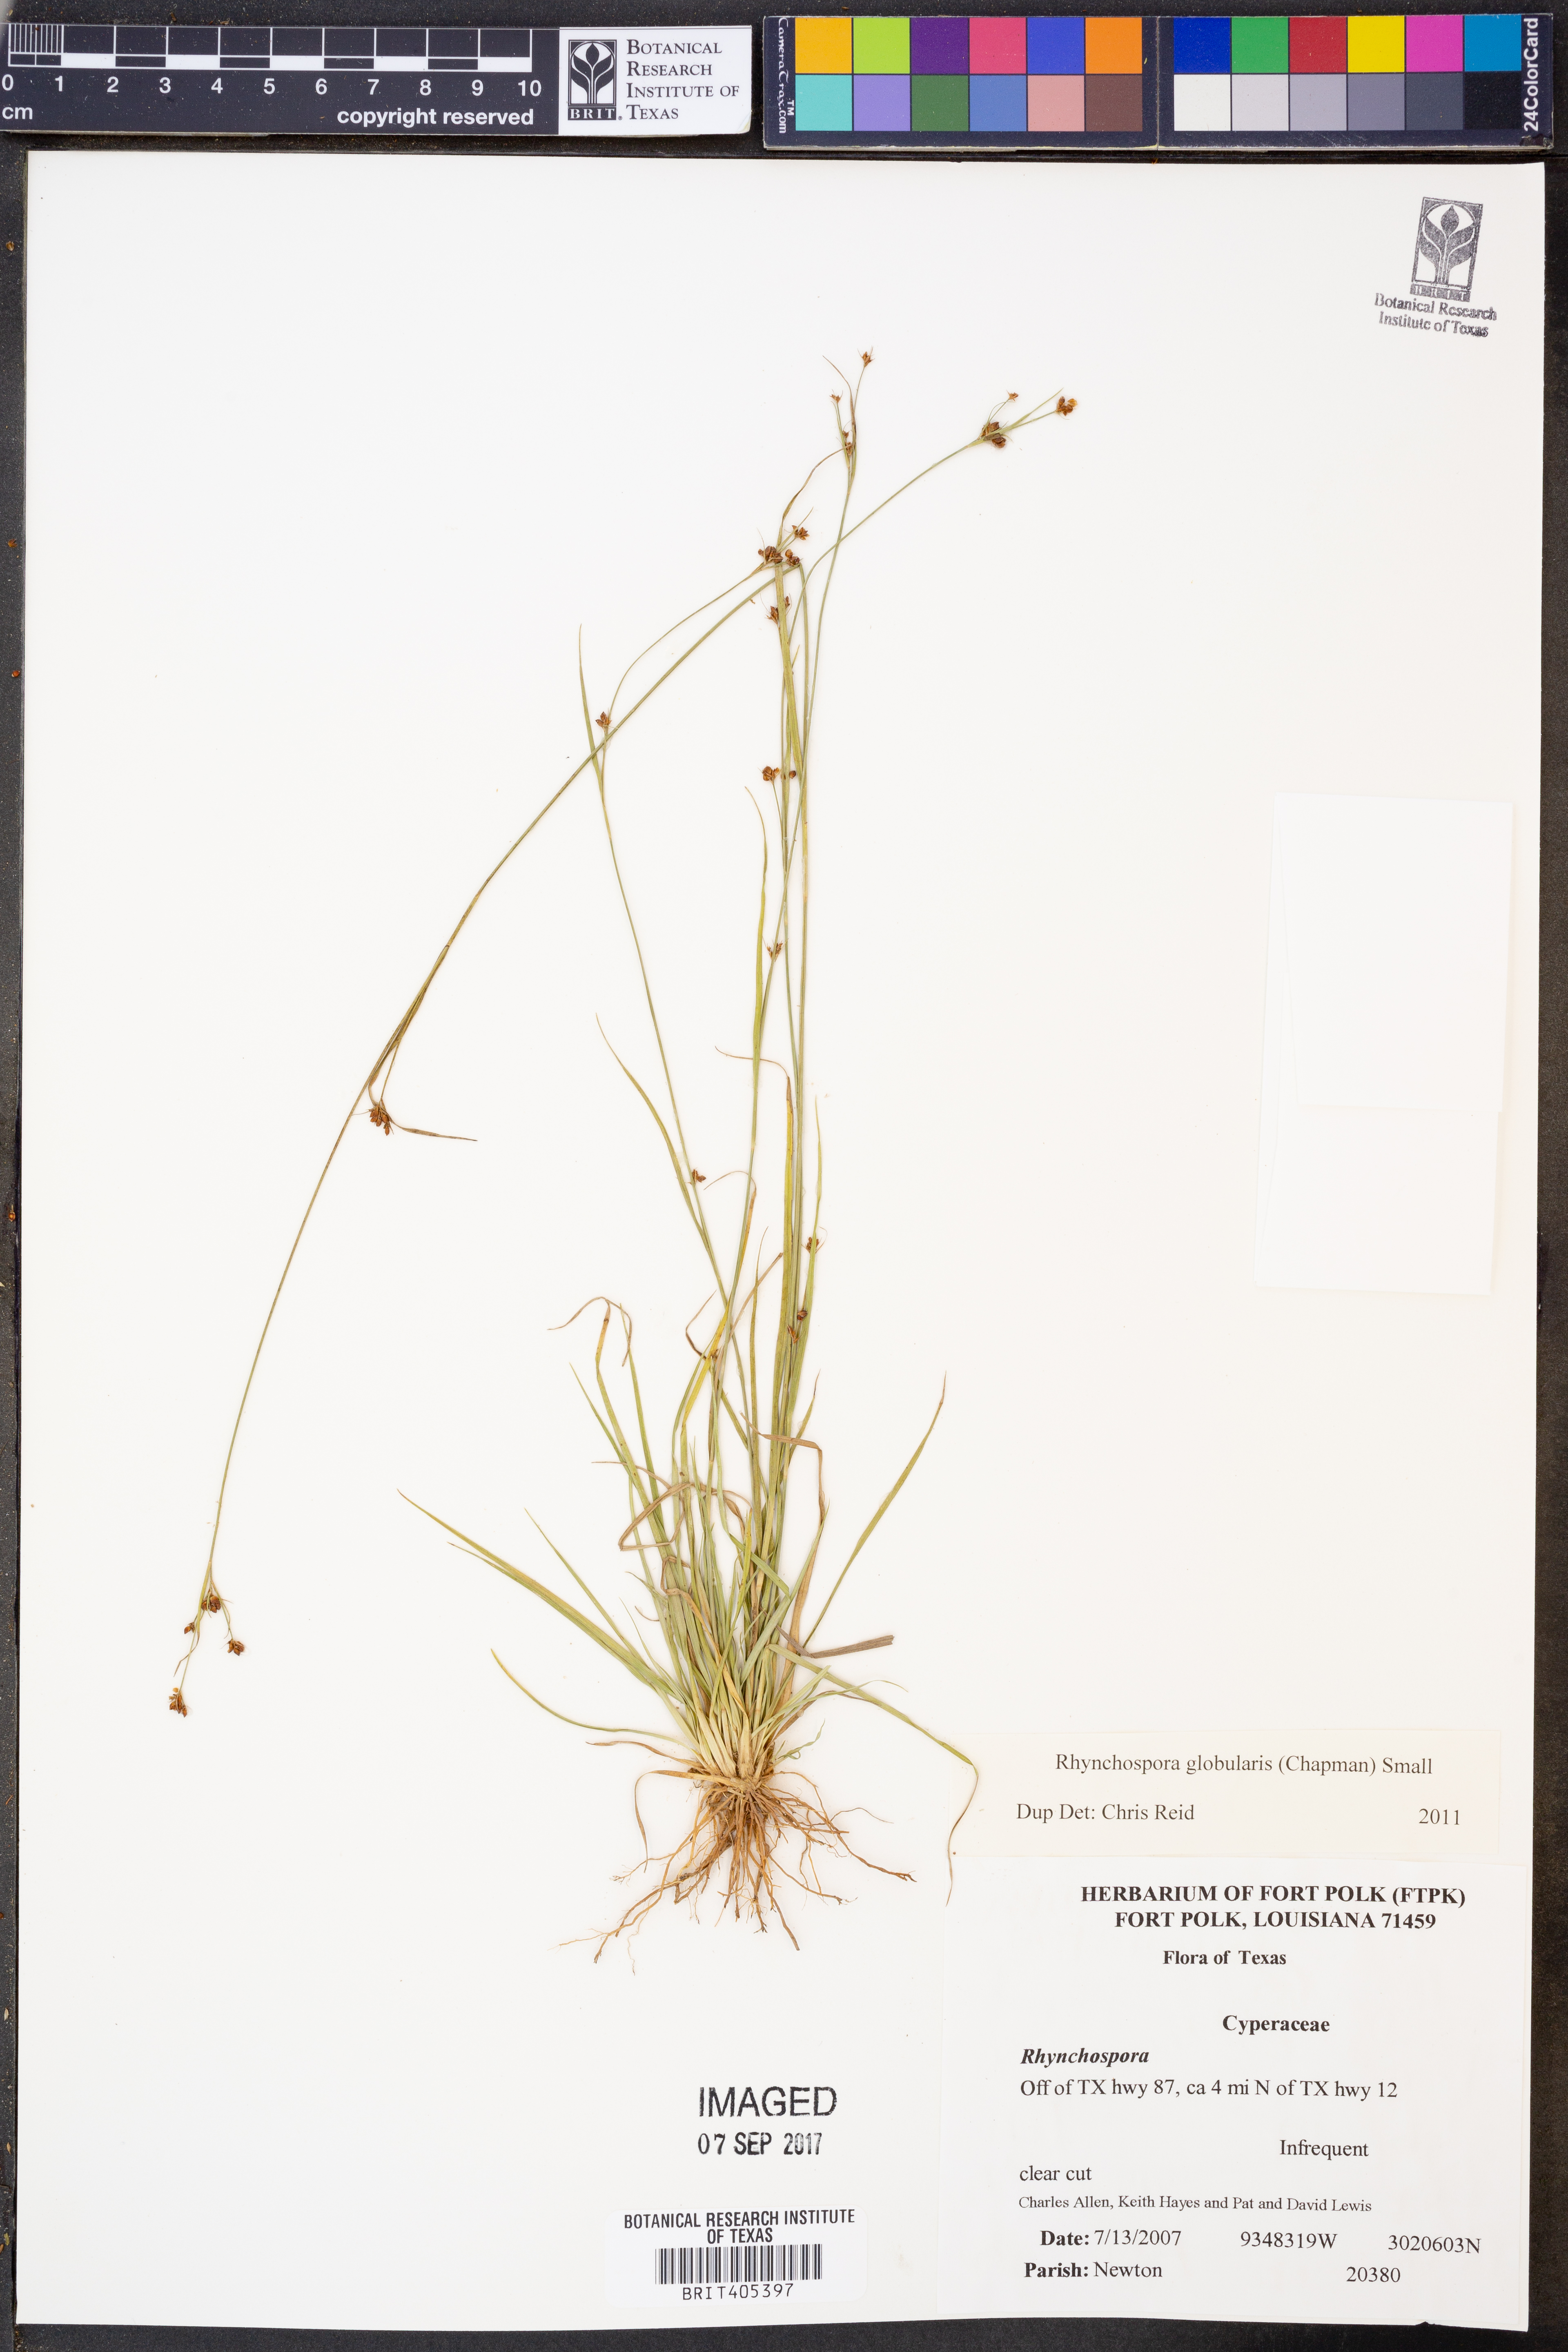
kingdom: Plantae
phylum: Tracheophyta
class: Liliopsida
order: Poales
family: Cyperaceae
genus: Rhynchospora
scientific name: Rhynchospora globularis
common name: Globe beaksedge
